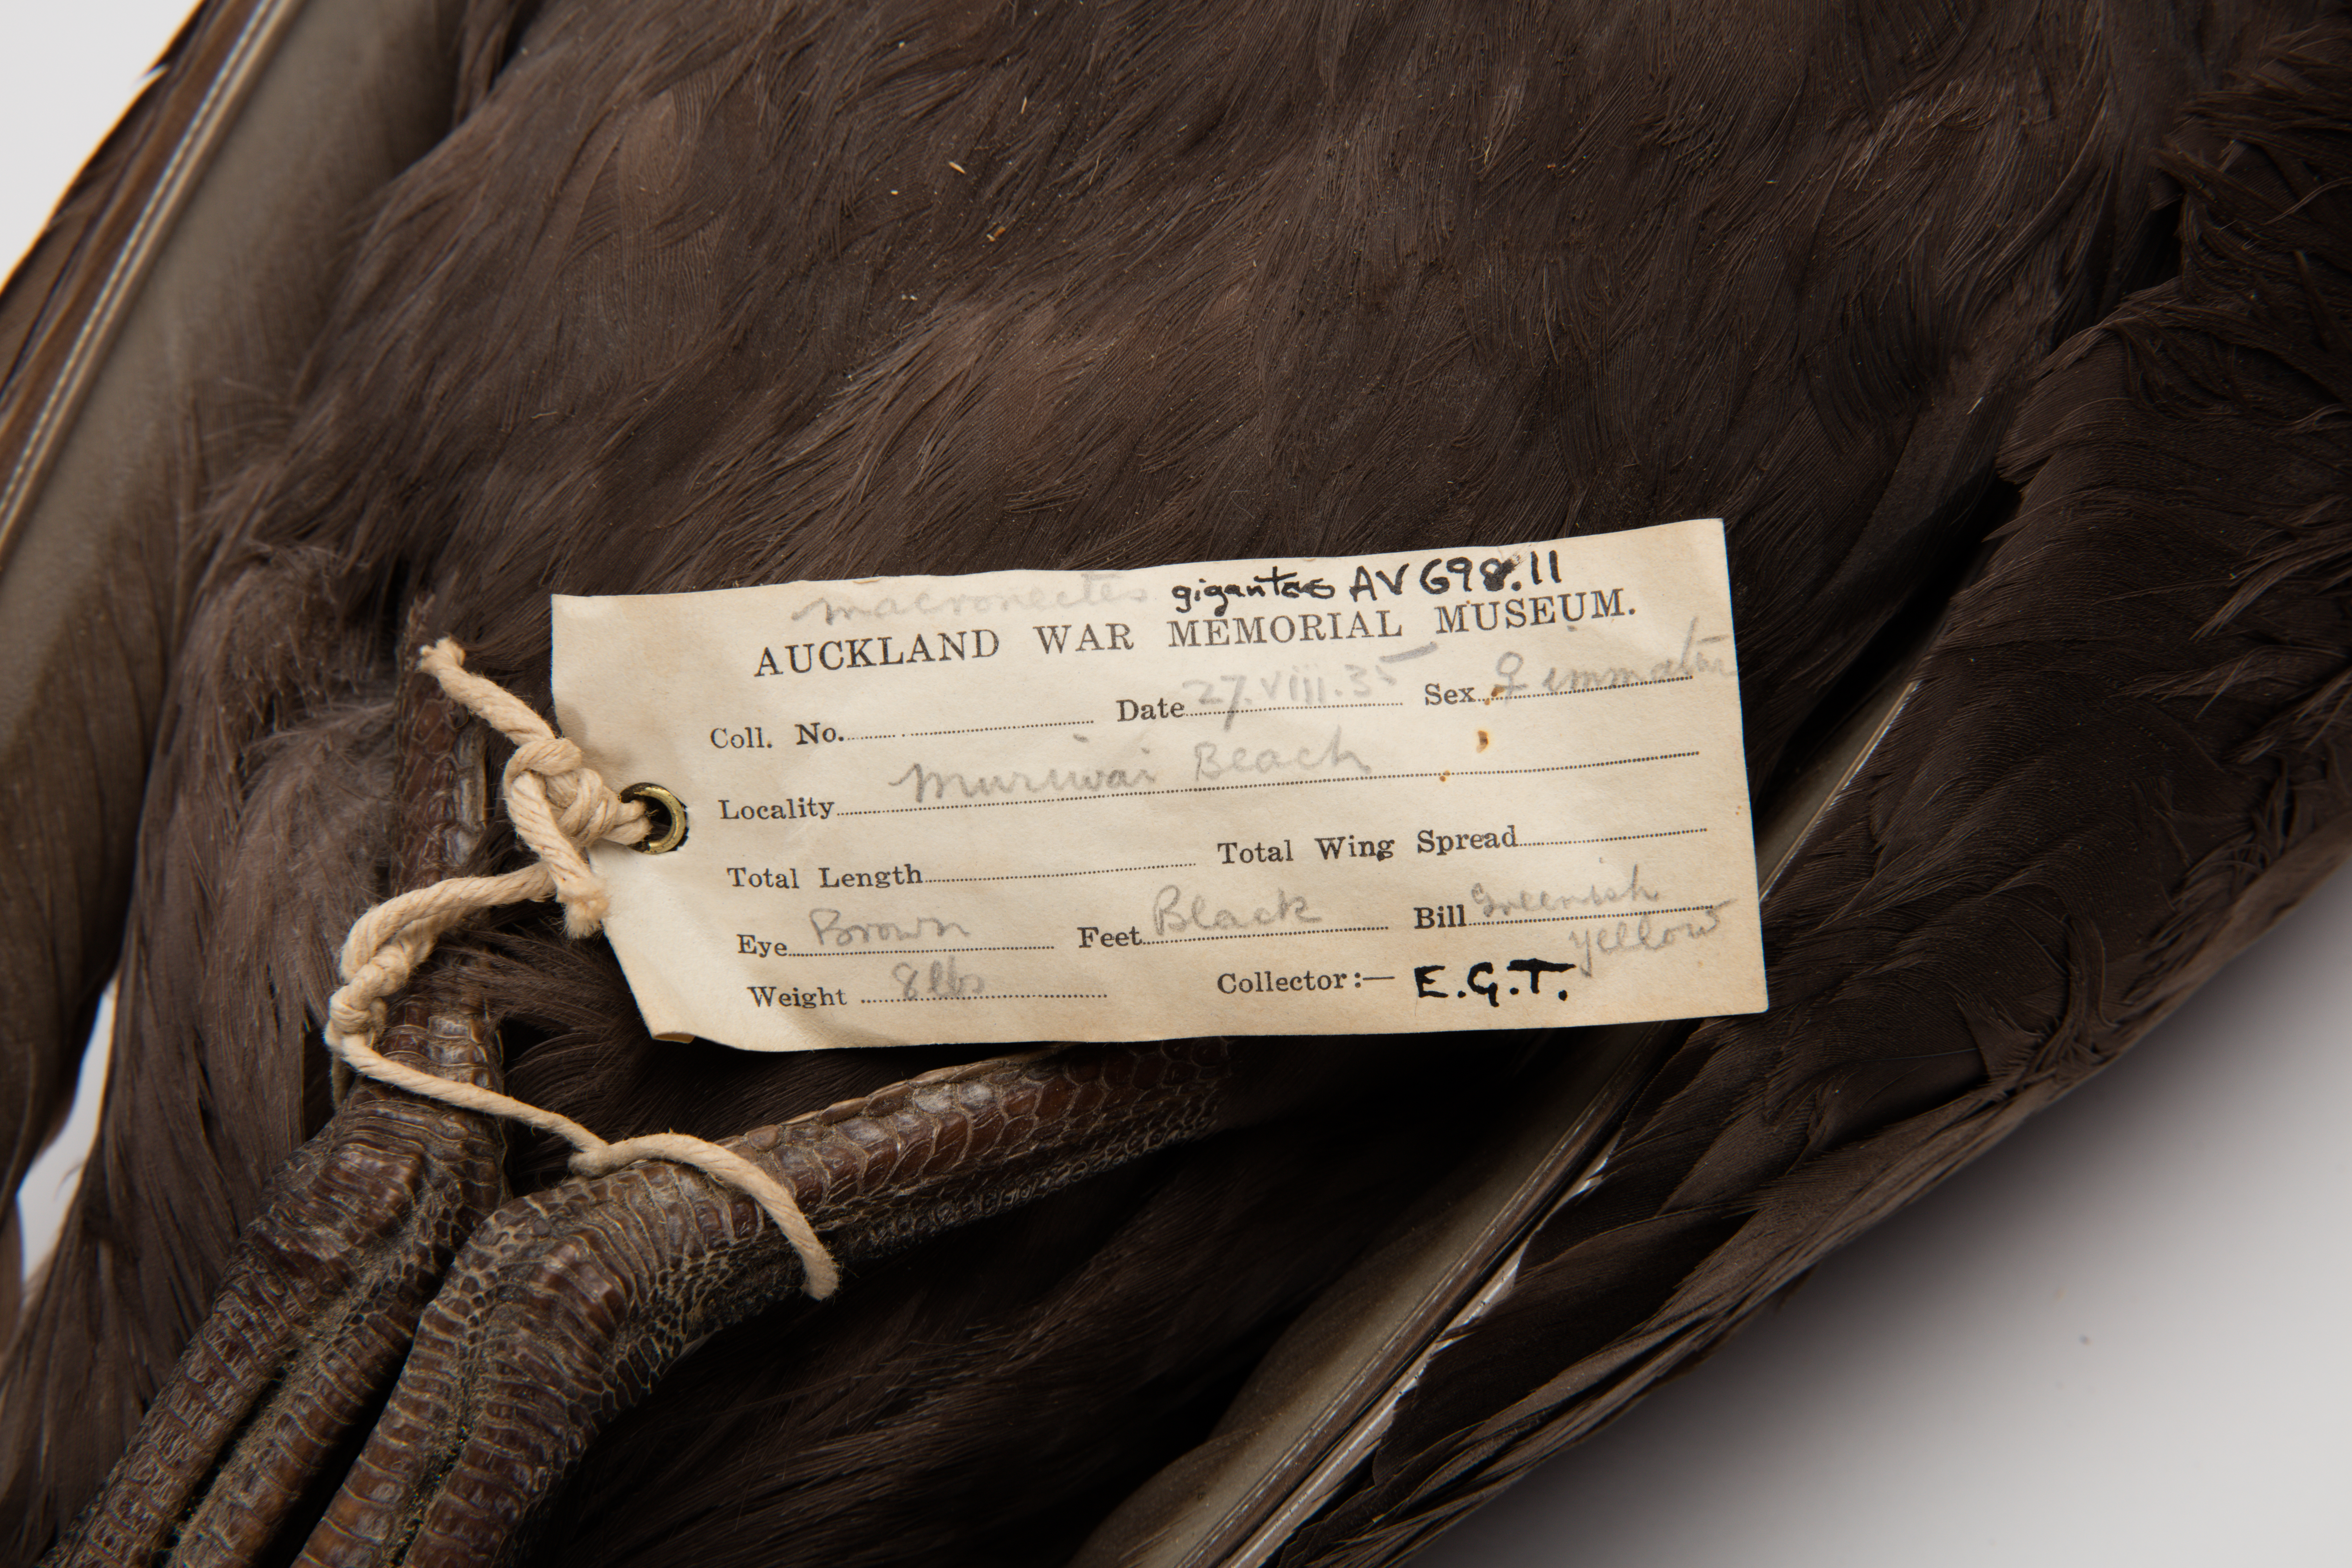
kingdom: Animalia
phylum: Chordata
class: Aves
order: Procellariiformes
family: Procellariidae
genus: Macronectes
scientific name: Macronectes giganteus
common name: Southern giant petrel
